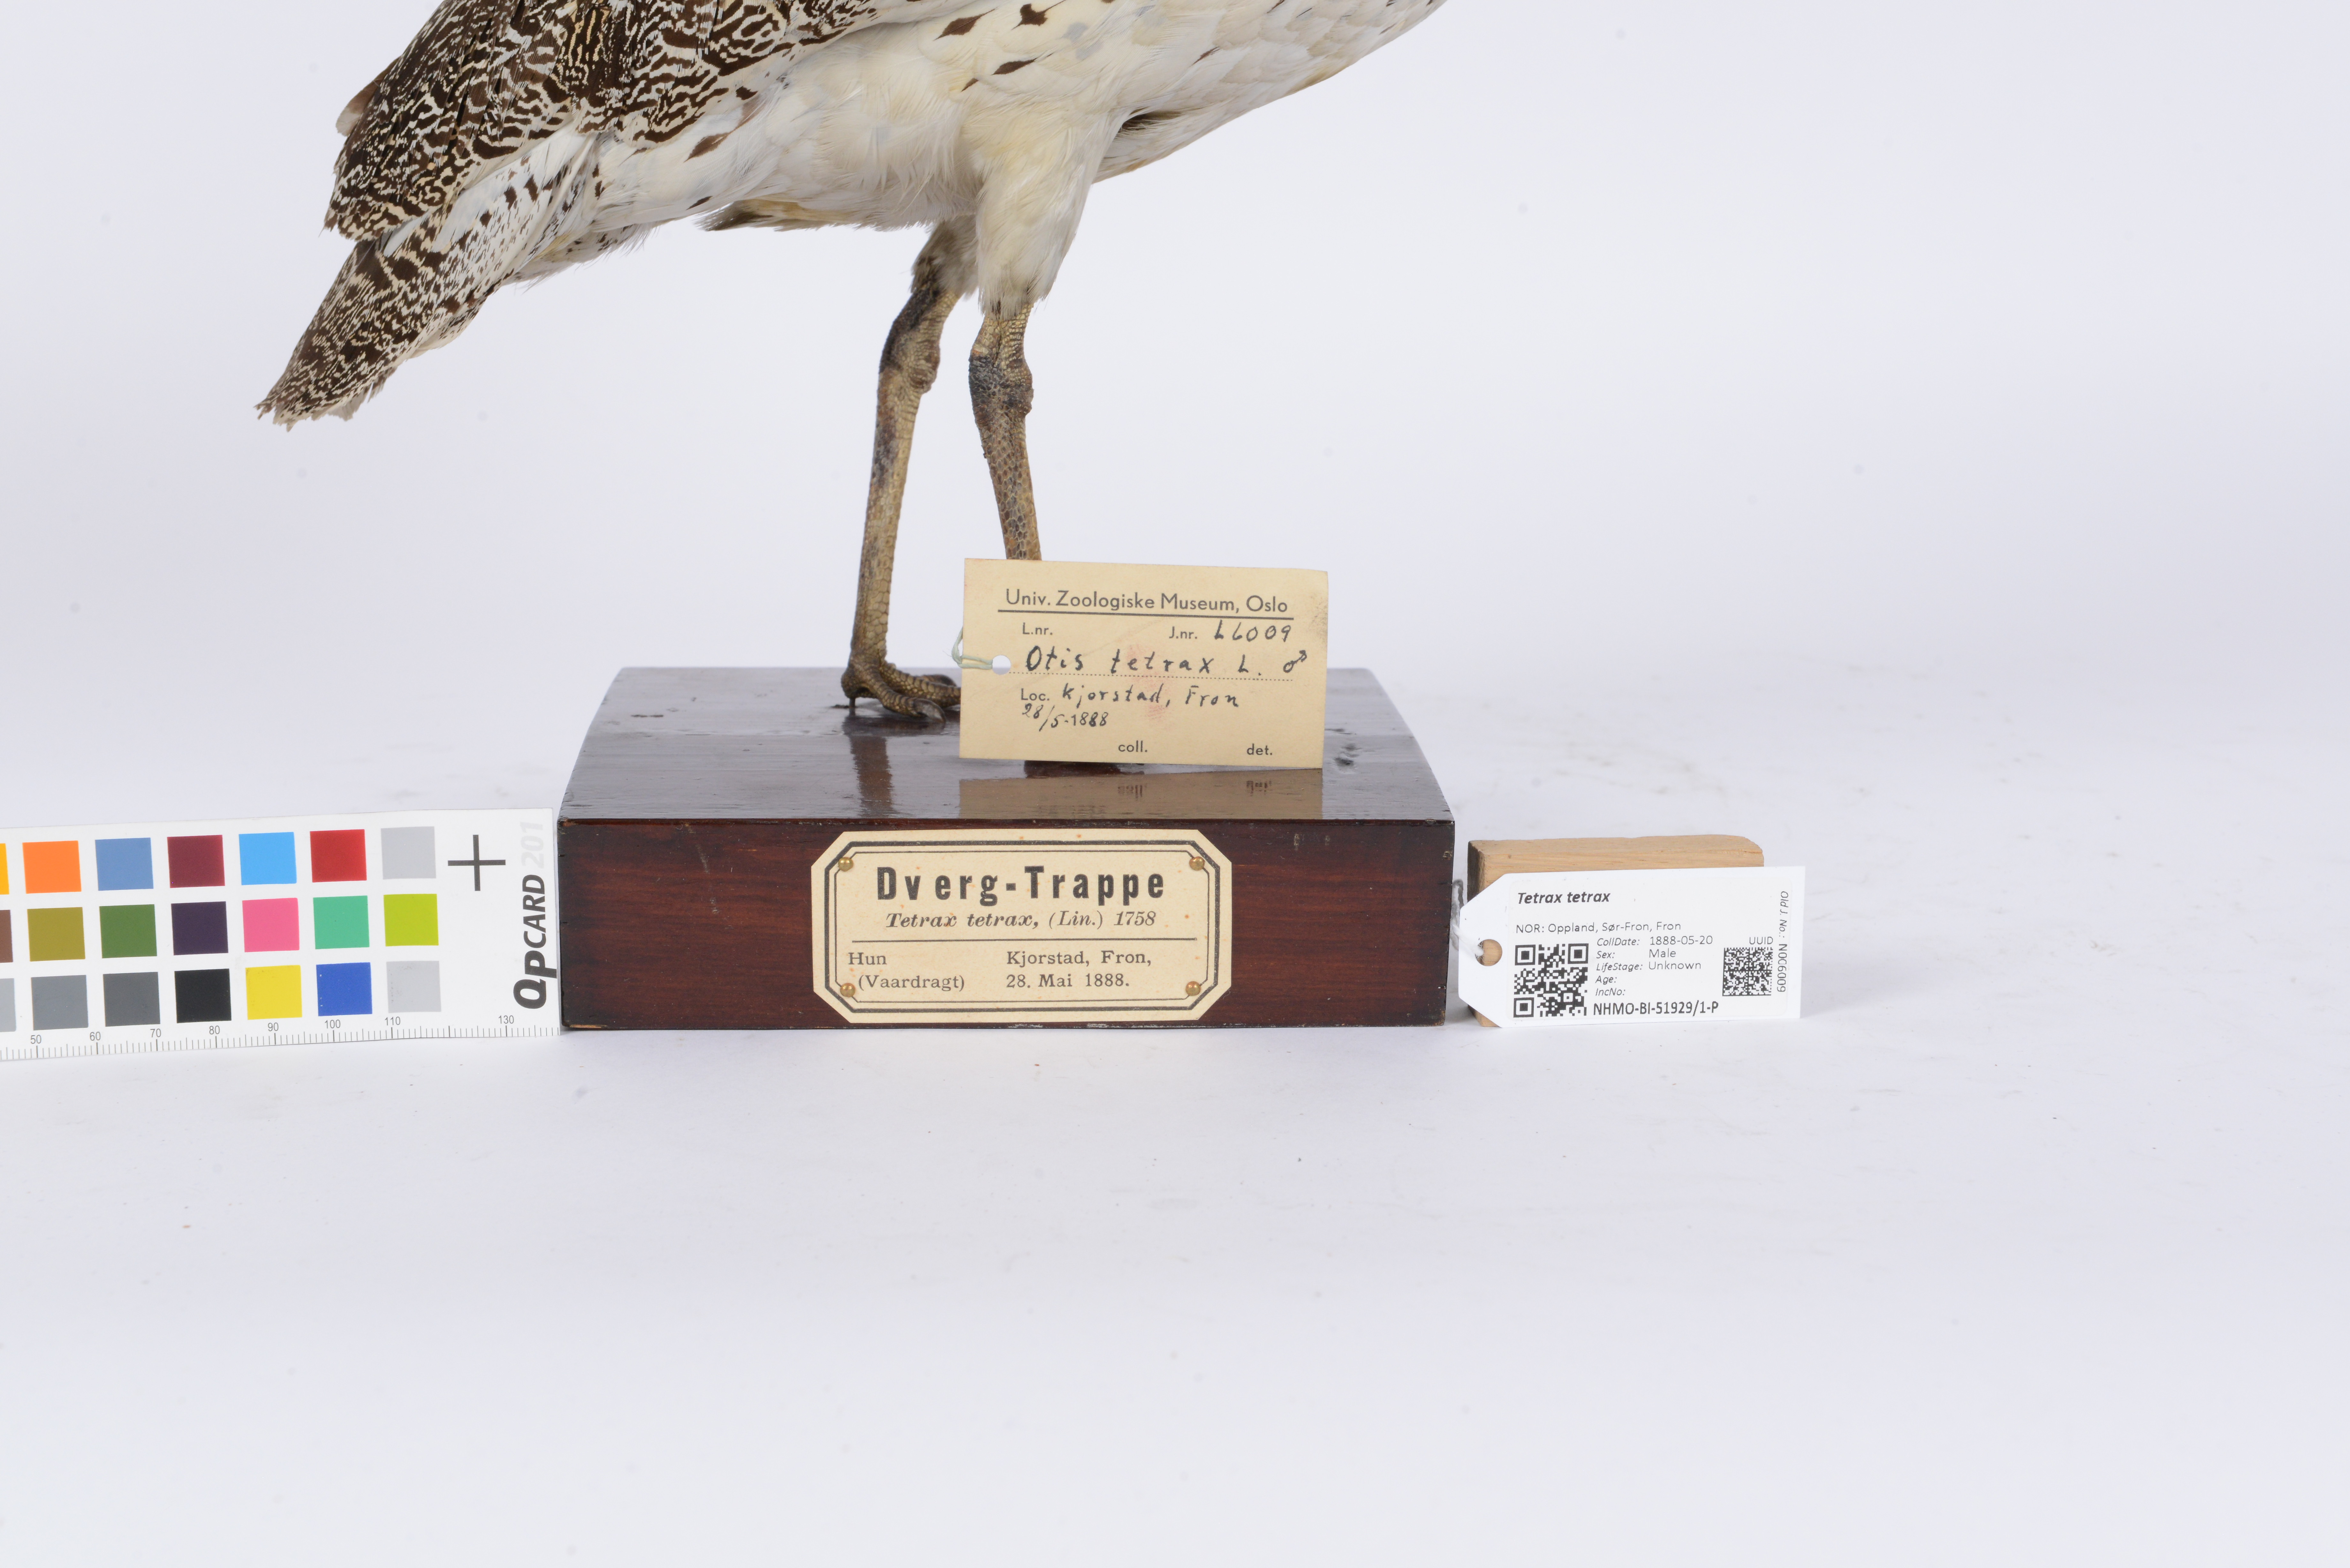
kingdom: Animalia
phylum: Chordata
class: Aves
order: Otidiformes
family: Otididae
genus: Tetrax
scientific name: Tetrax tetrax
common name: Little bustard
